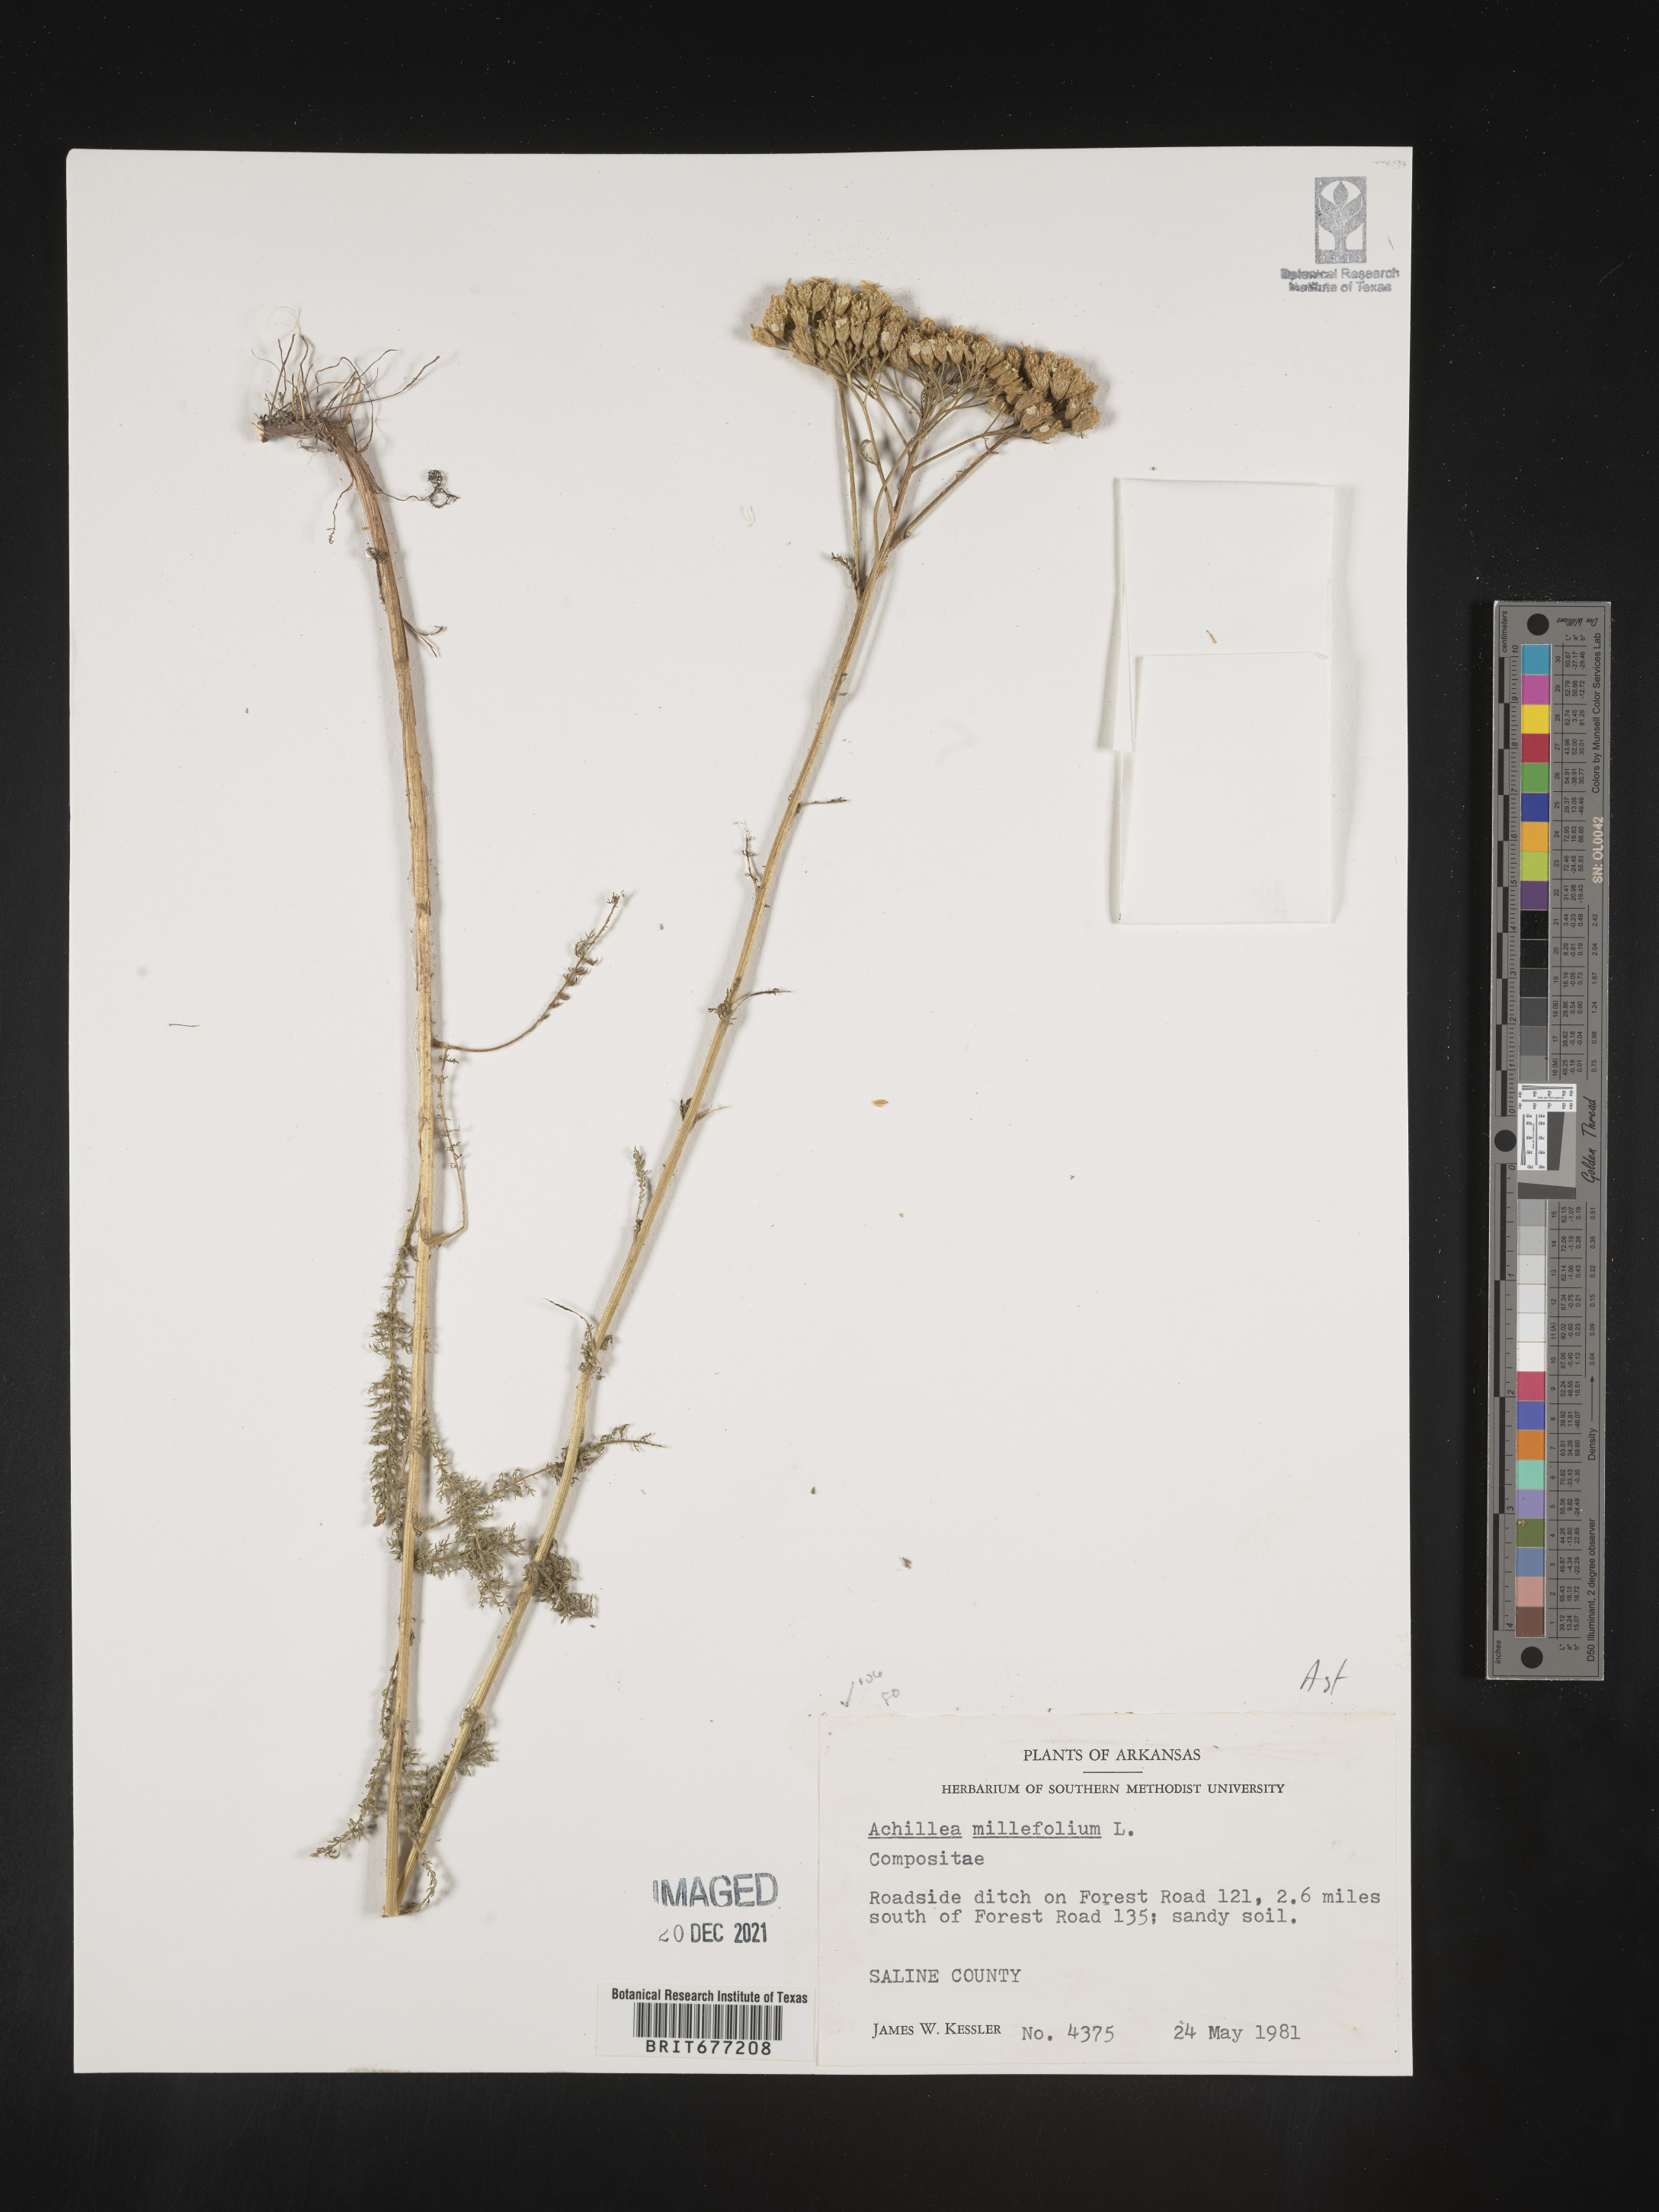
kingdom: Plantae
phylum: Tracheophyta
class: Magnoliopsida
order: Asterales
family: Asteraceae
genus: Achillea
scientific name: Achillea millefolium
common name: Yarrow
